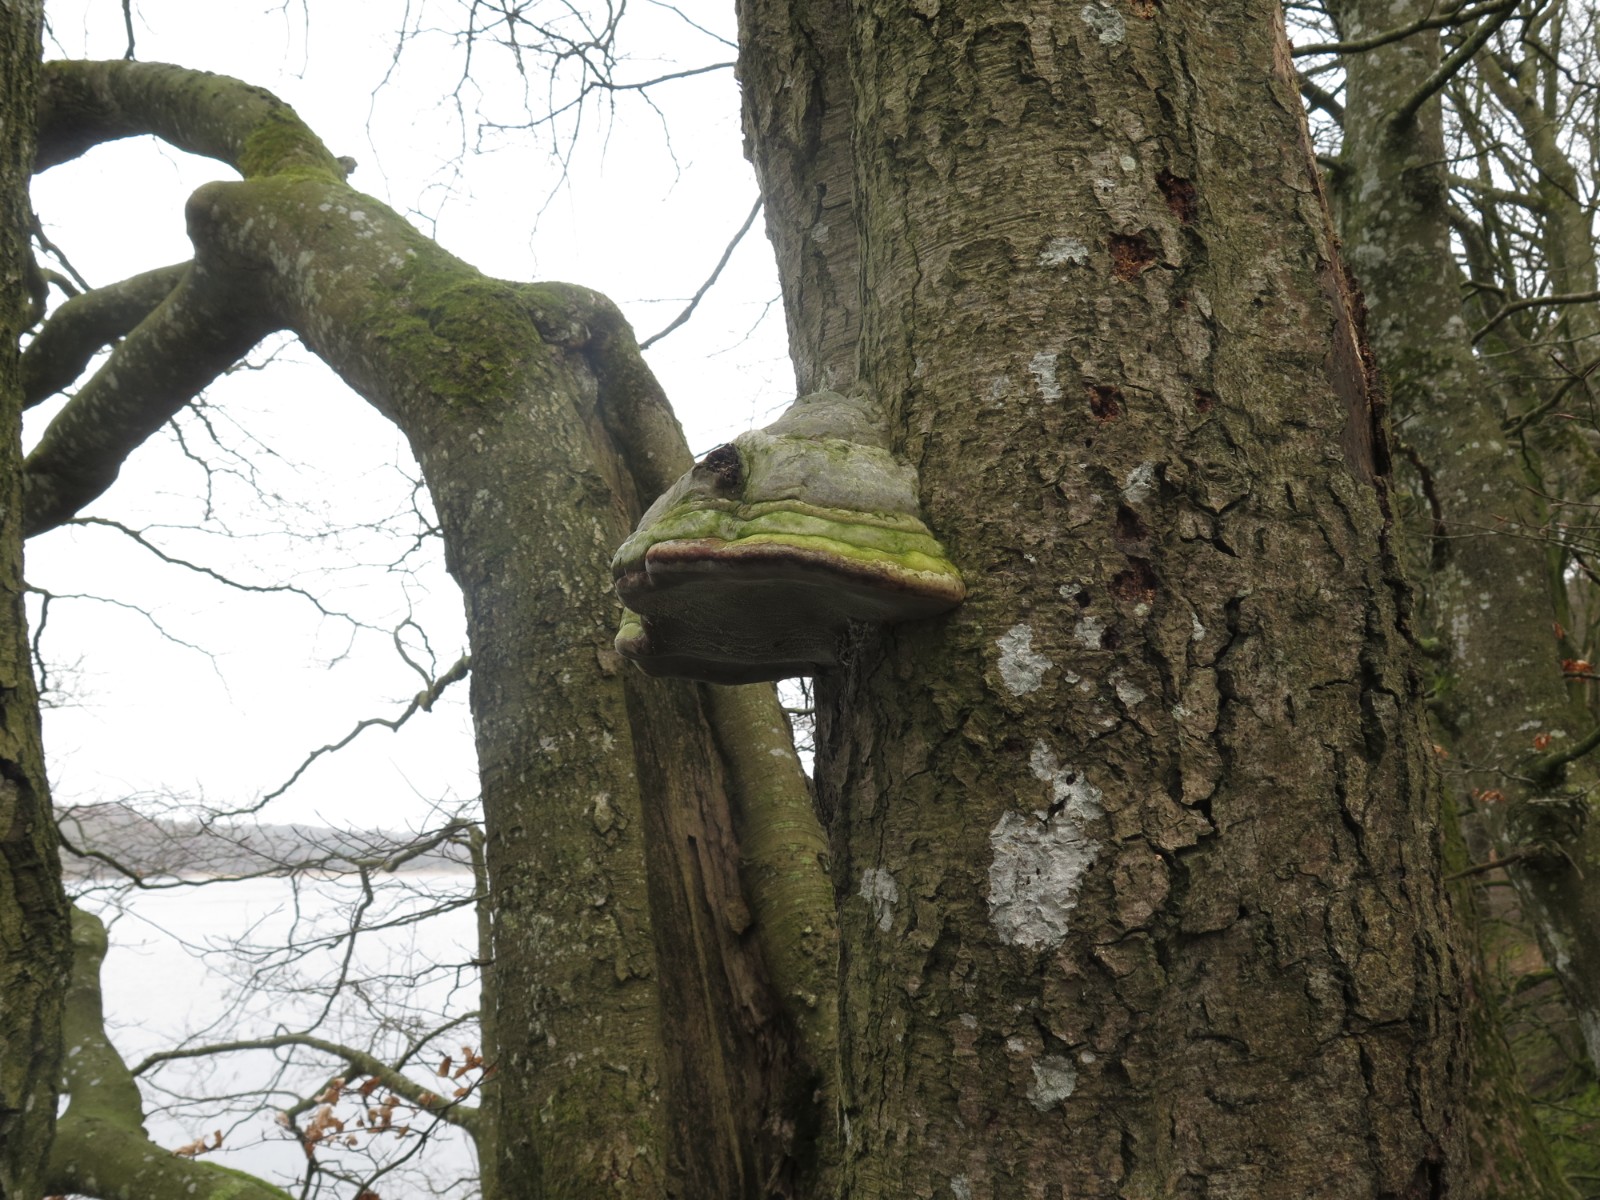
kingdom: Fungi
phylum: Basidiomycota
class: Agaricomycetes
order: Polyporales
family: Polyporaceae
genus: Fomes
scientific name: Fomes fomentarius
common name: tøndersvamp
